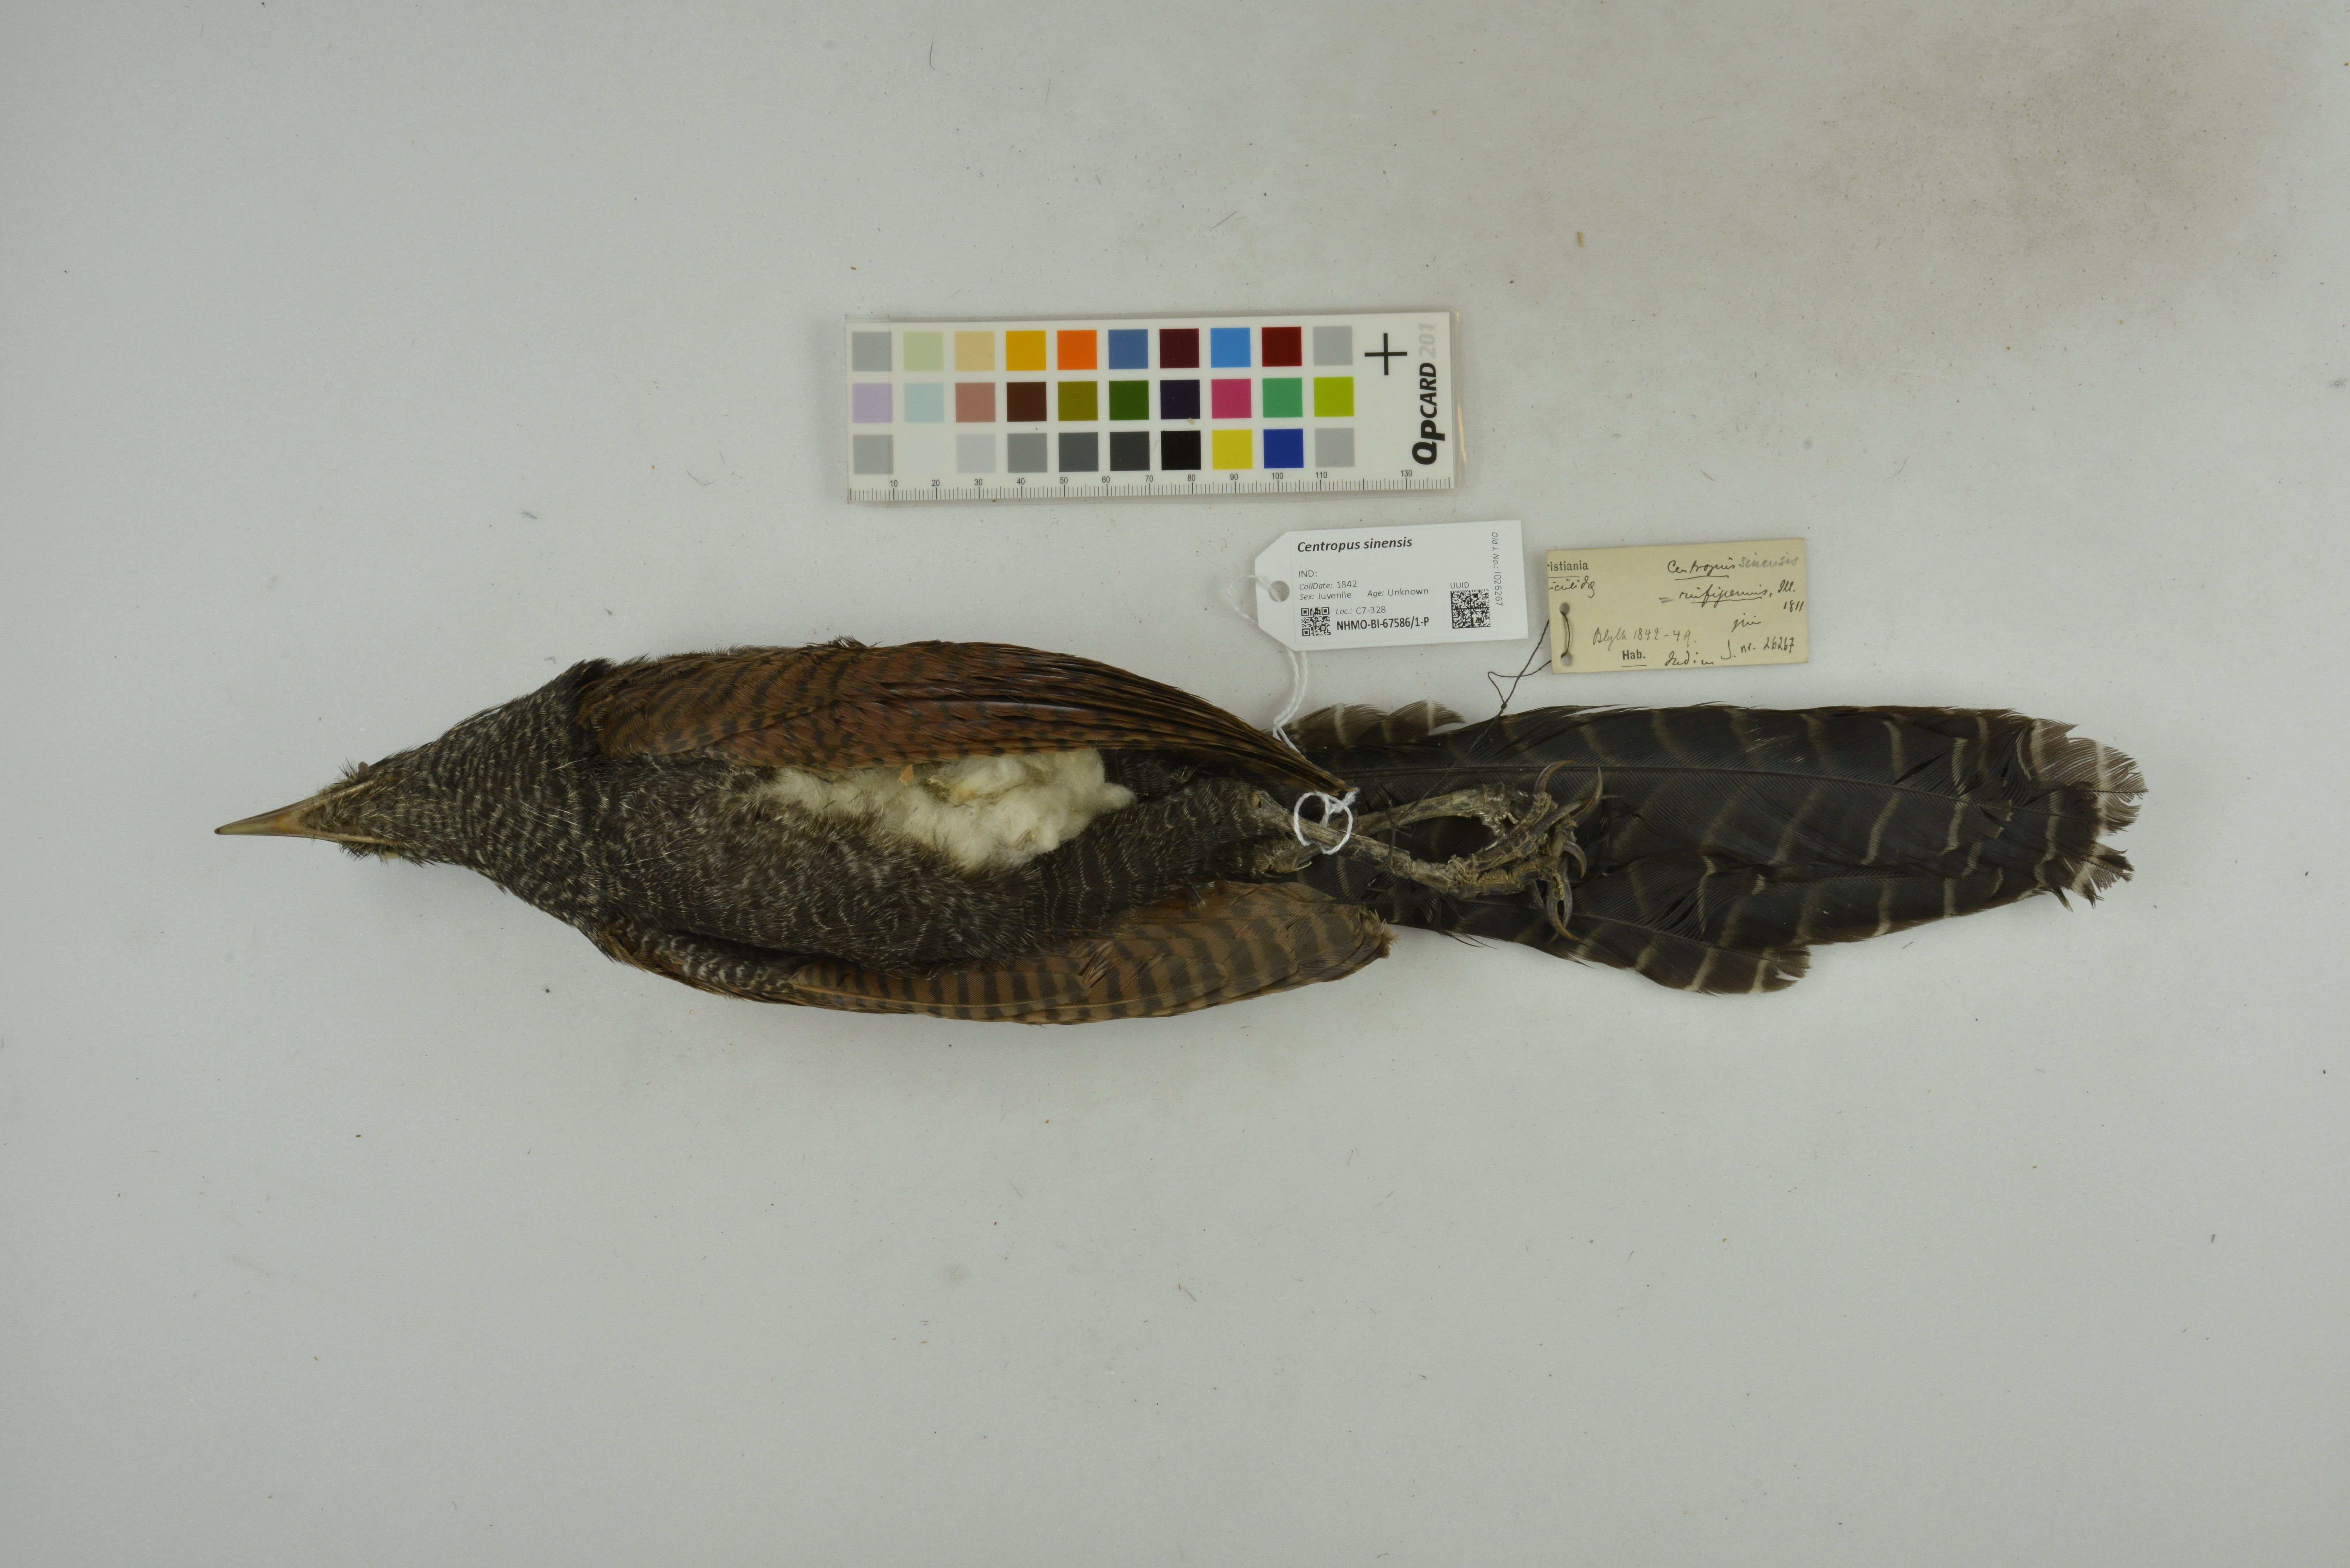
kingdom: Animalia
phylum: Chordata
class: Aves
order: Cuculiformes
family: Cuculidae
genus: Centropus
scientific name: Centropus sinensis
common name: Greater coucal
